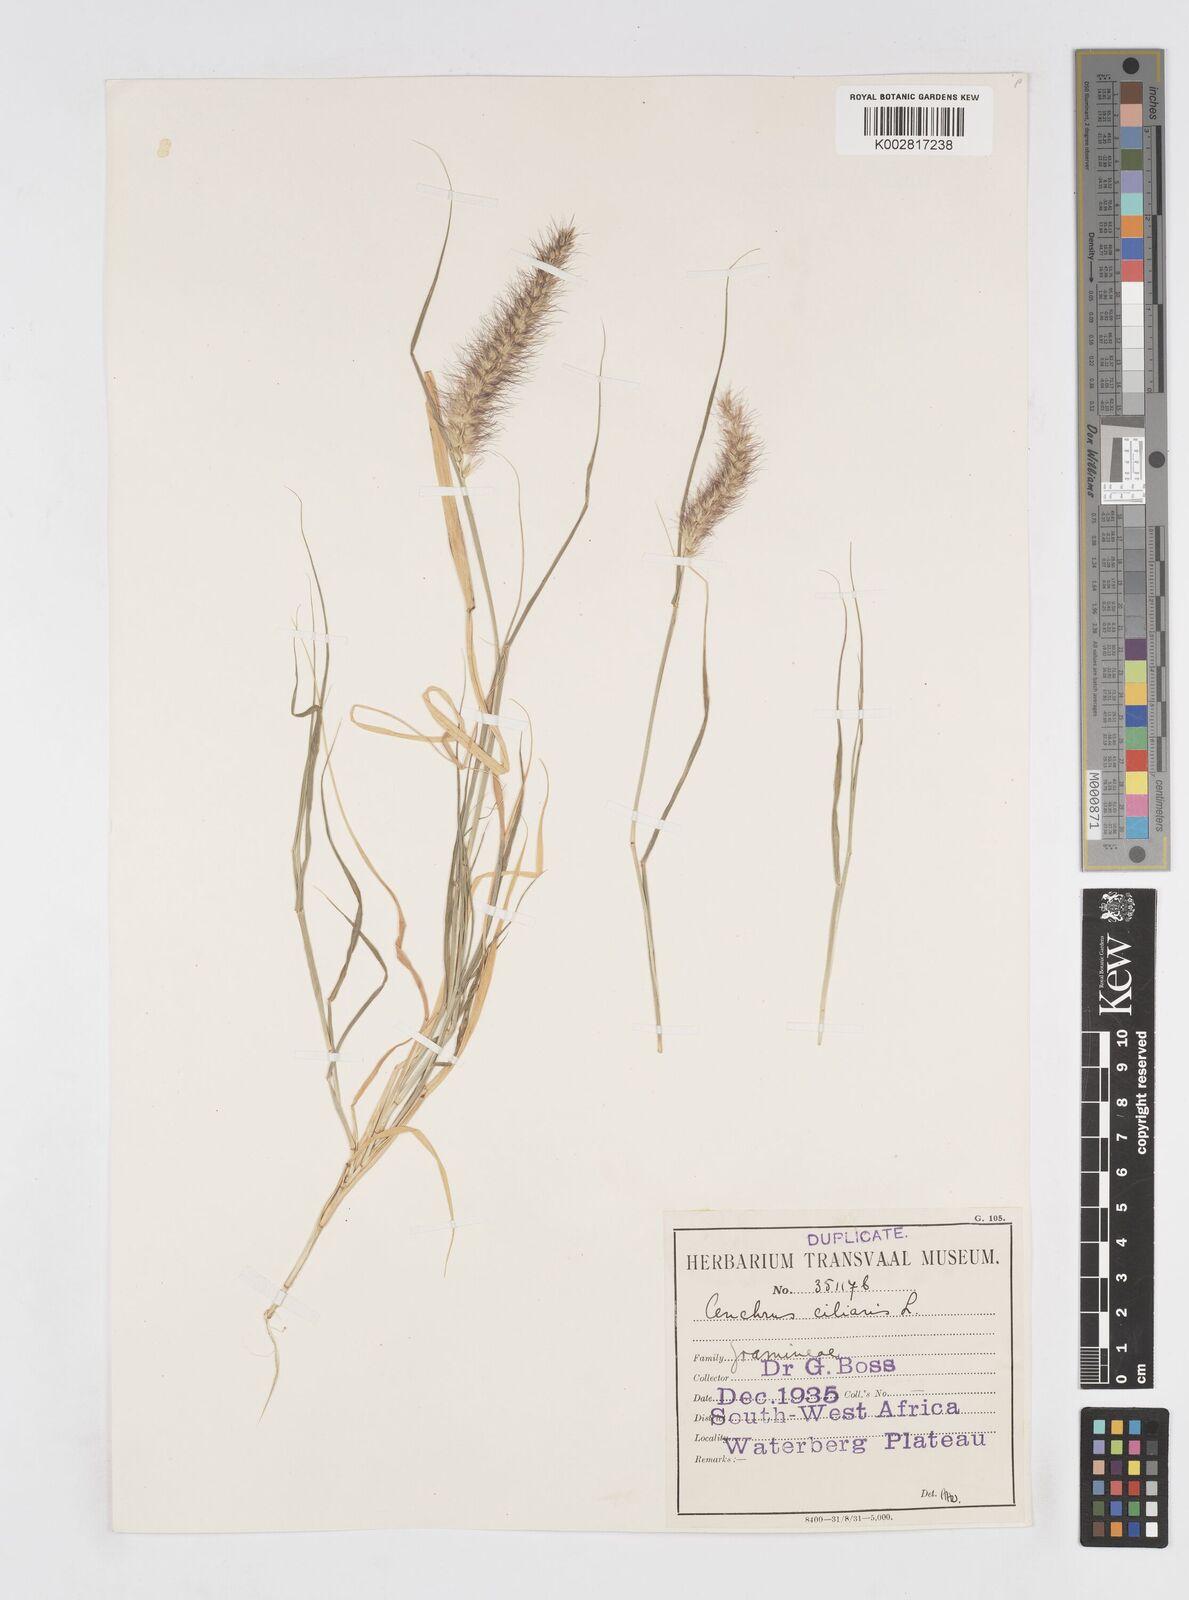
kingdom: Plantae
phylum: Tracheophyta
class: Liliopsida
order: Poales
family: Poaceae
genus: Cenchrus
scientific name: Cenchrus ciliaris
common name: Buffelgrass
